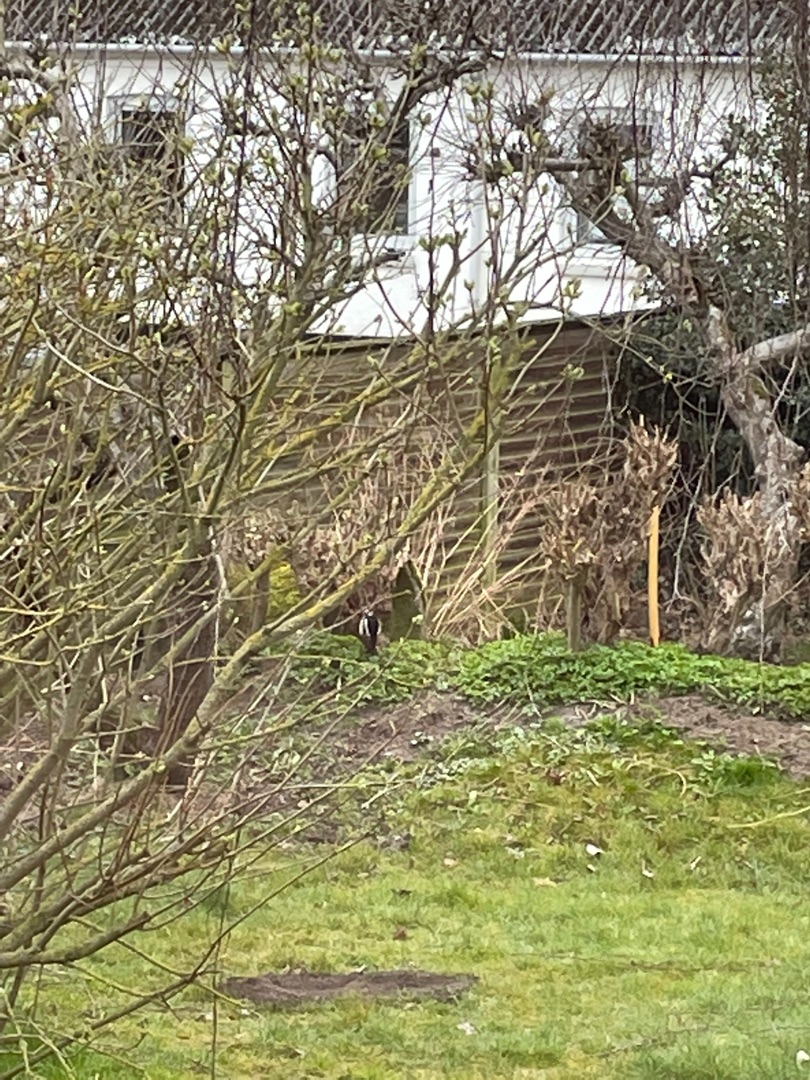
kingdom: Animalia
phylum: Chordata
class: Aves
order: Piciformes
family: Picidae
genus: Dendrocopos
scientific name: Dendrocopos major
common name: Stor flagspætte
